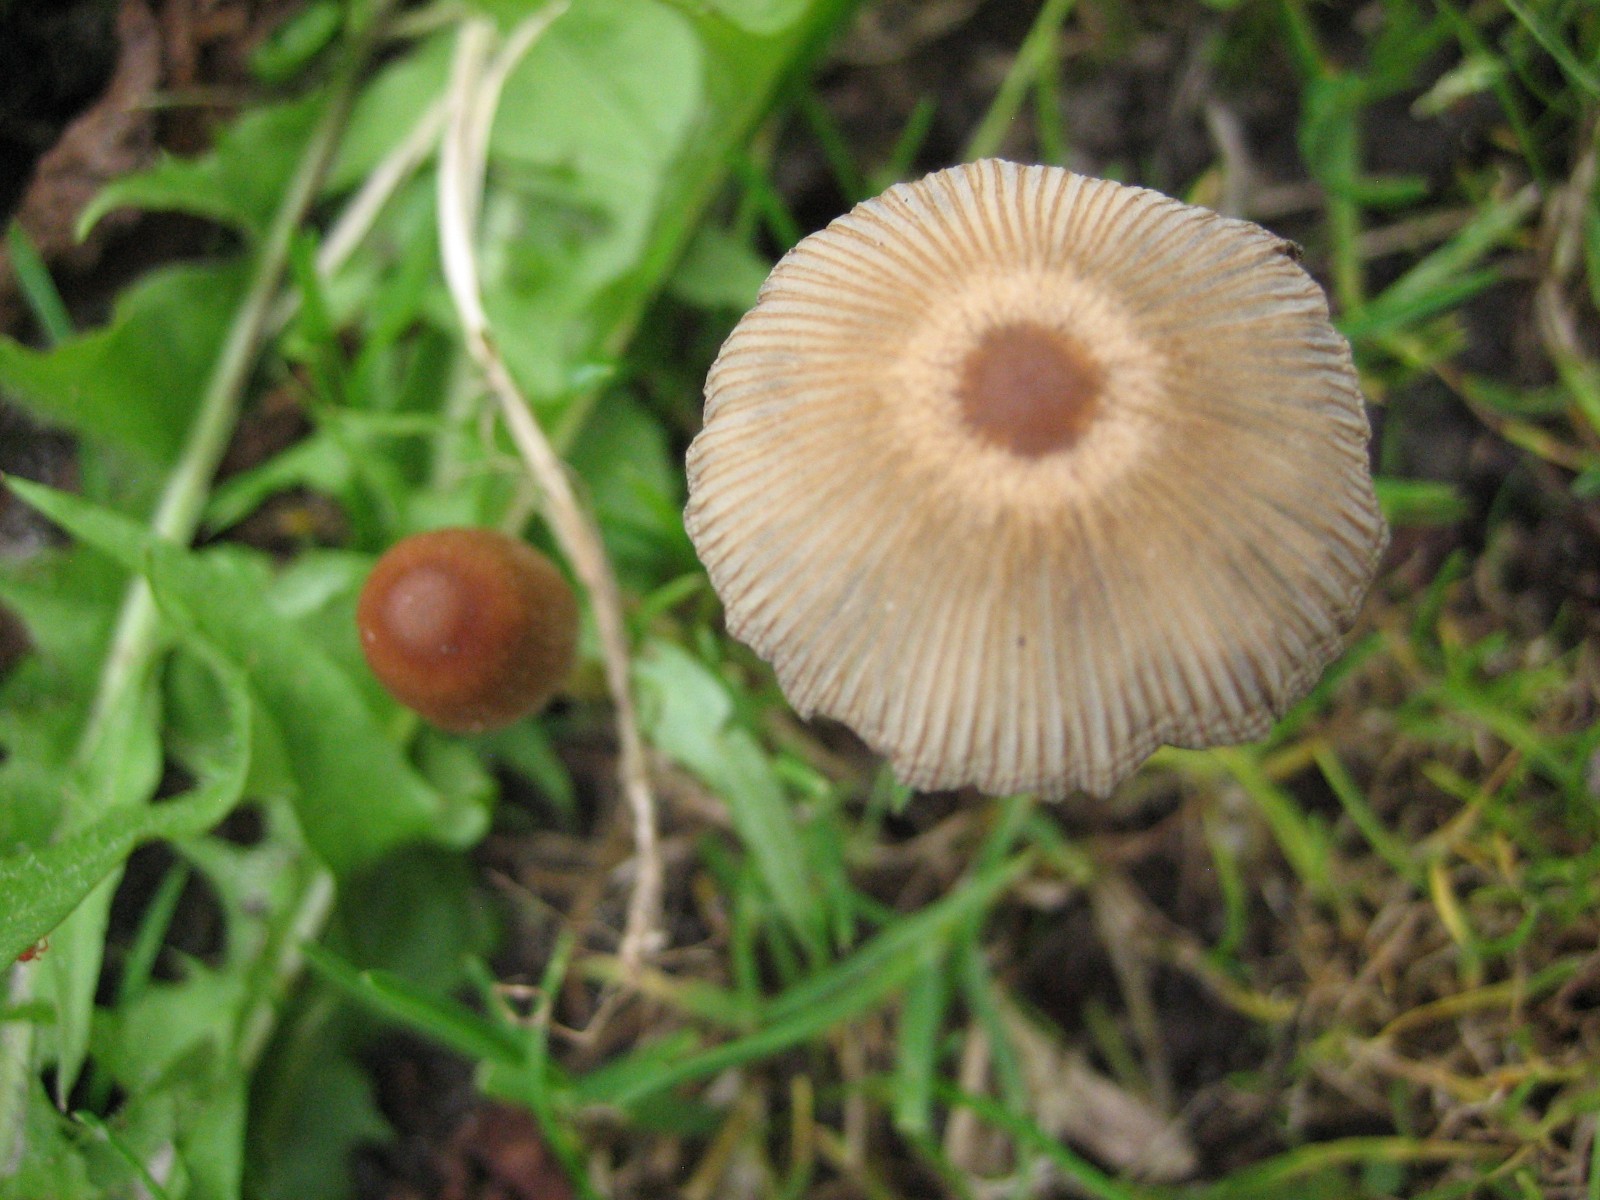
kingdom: Fungi
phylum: Basidiomycota
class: Agaricomycetes
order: Agaricales
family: Psathyrellaceae
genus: Parasola
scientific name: Parasola
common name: hjulhat
